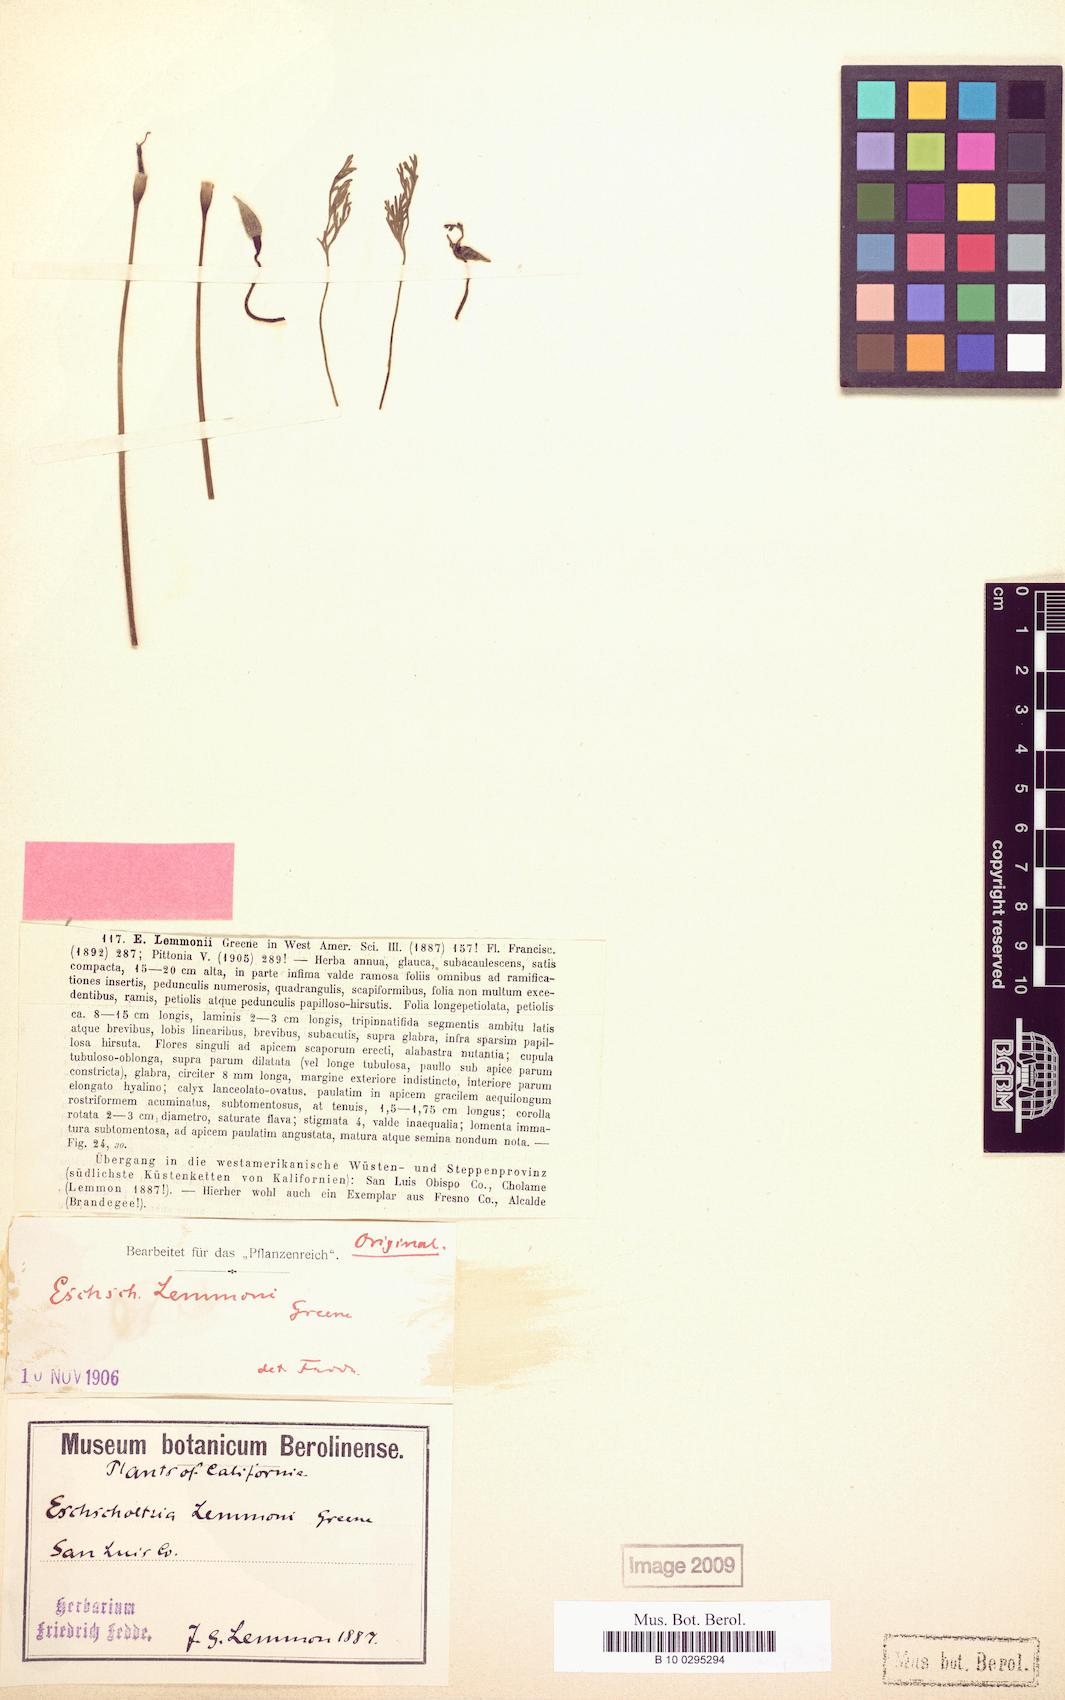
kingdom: Plantae
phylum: Tracheophyta
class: Magnoliopsida
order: Ranunculales
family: Papaveraceae
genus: Eschscholzia
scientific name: Eschscholzia lemmonii
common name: Lemmon's poppy
